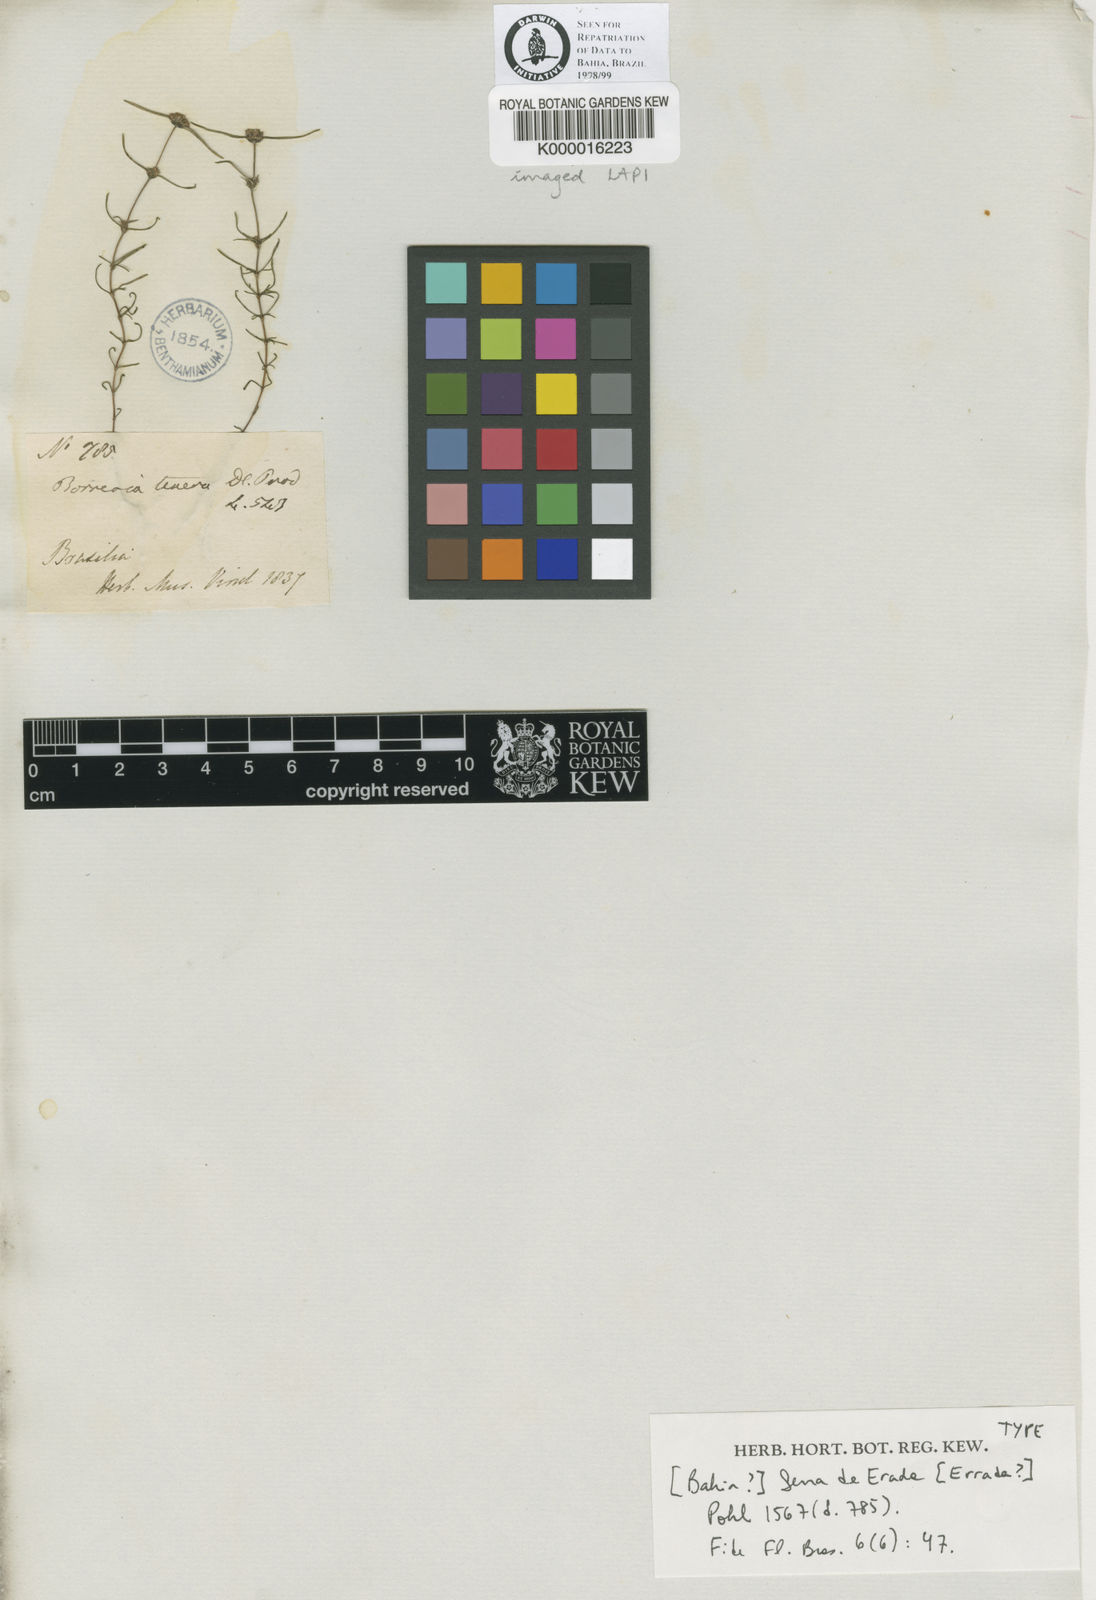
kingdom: Plantae
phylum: Tracheophyta
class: Magnoliopsida
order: Gentianales
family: Rubiaceae
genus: Spermacoce
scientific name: Spermacoce ocymoides
